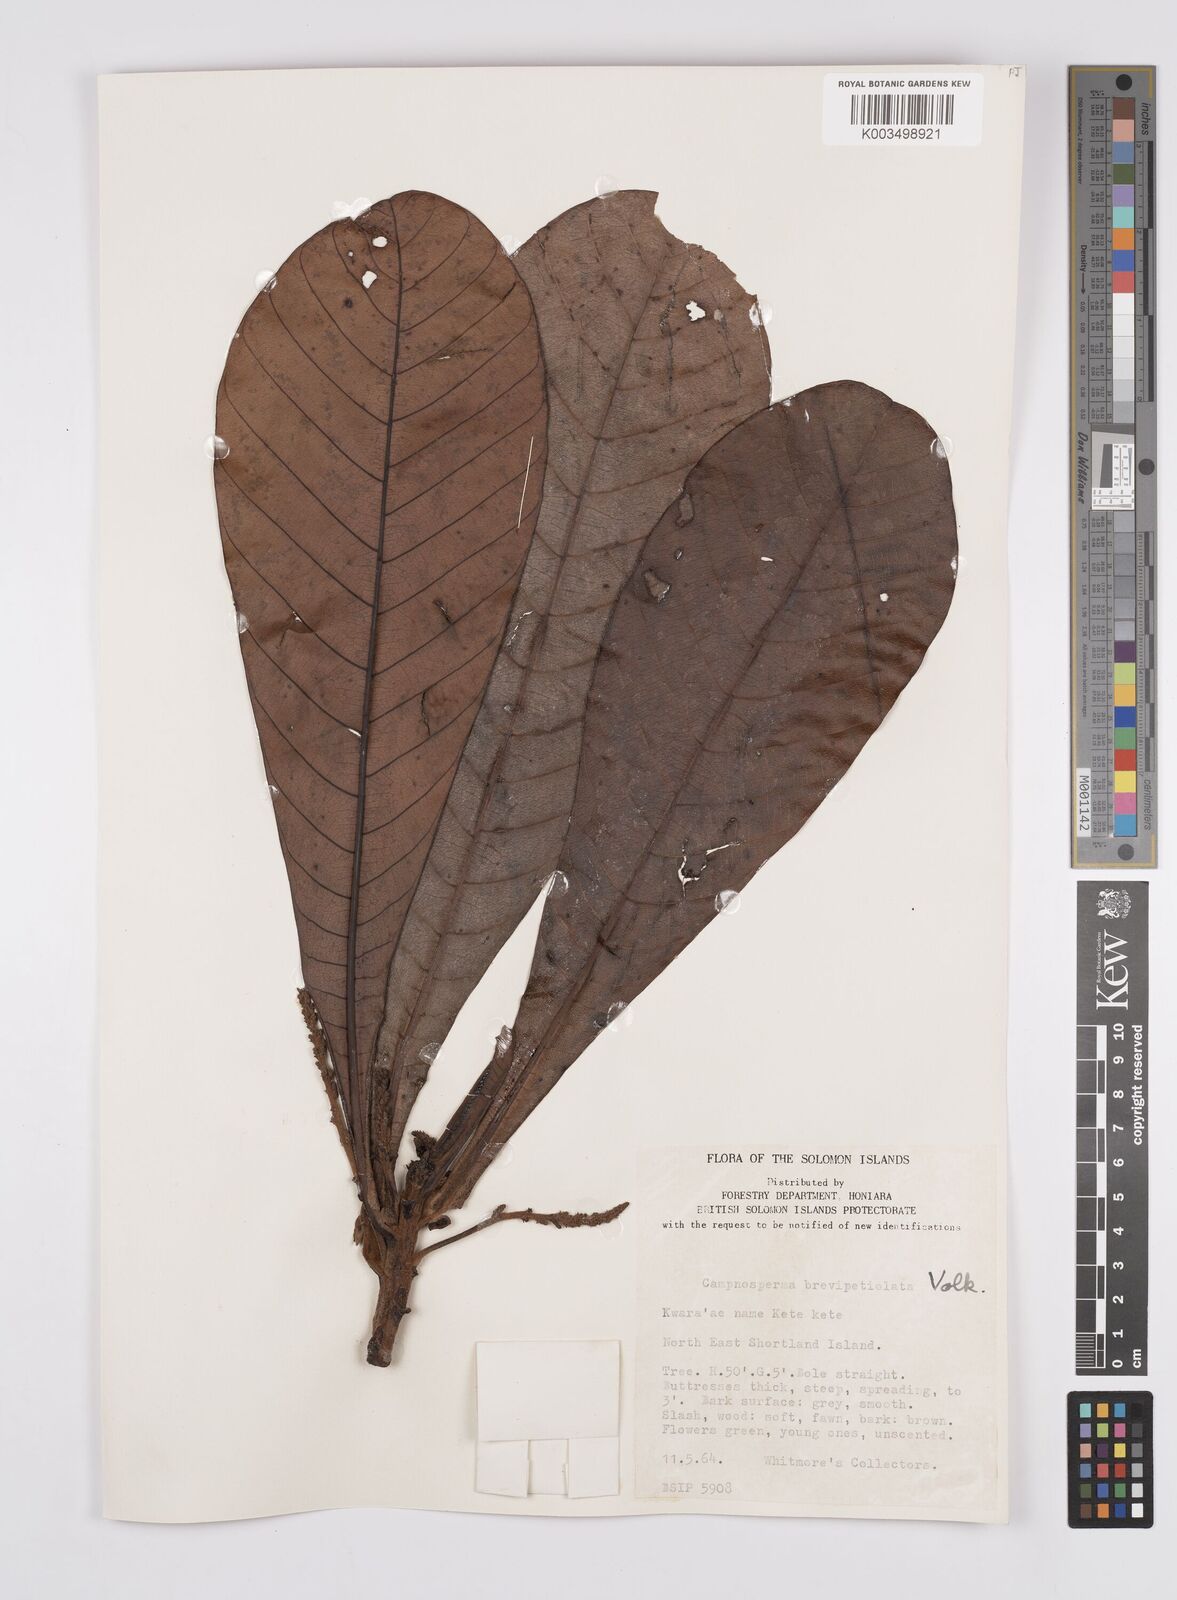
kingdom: Plantae
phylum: Tracheophyta
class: Magnoliopsida
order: Sapindales
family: Anacardiaceae
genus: Campnosperma
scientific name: Campnosperma brevipetiolatum
